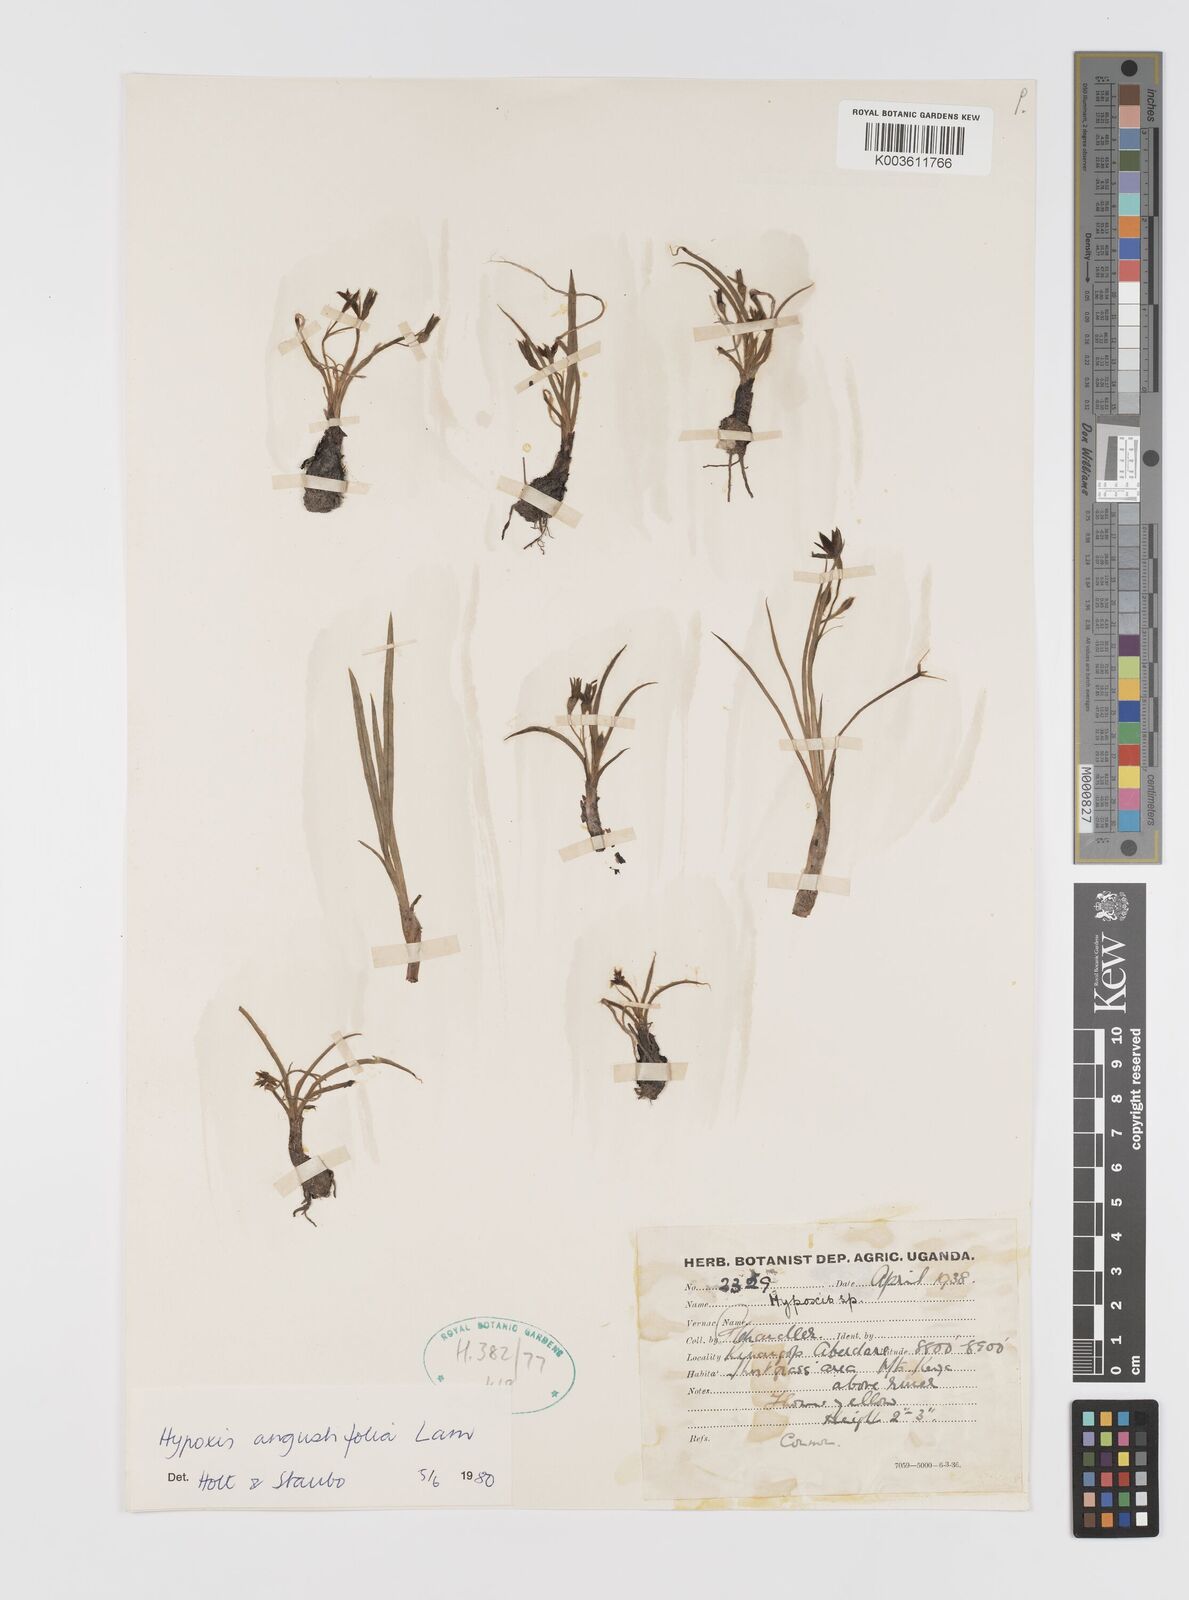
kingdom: Plantae
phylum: Tracheophyta
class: Liliopsida
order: Asparagales
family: Hypoxidaceae
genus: Hypoxis
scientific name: Hypoxis angustifolia
